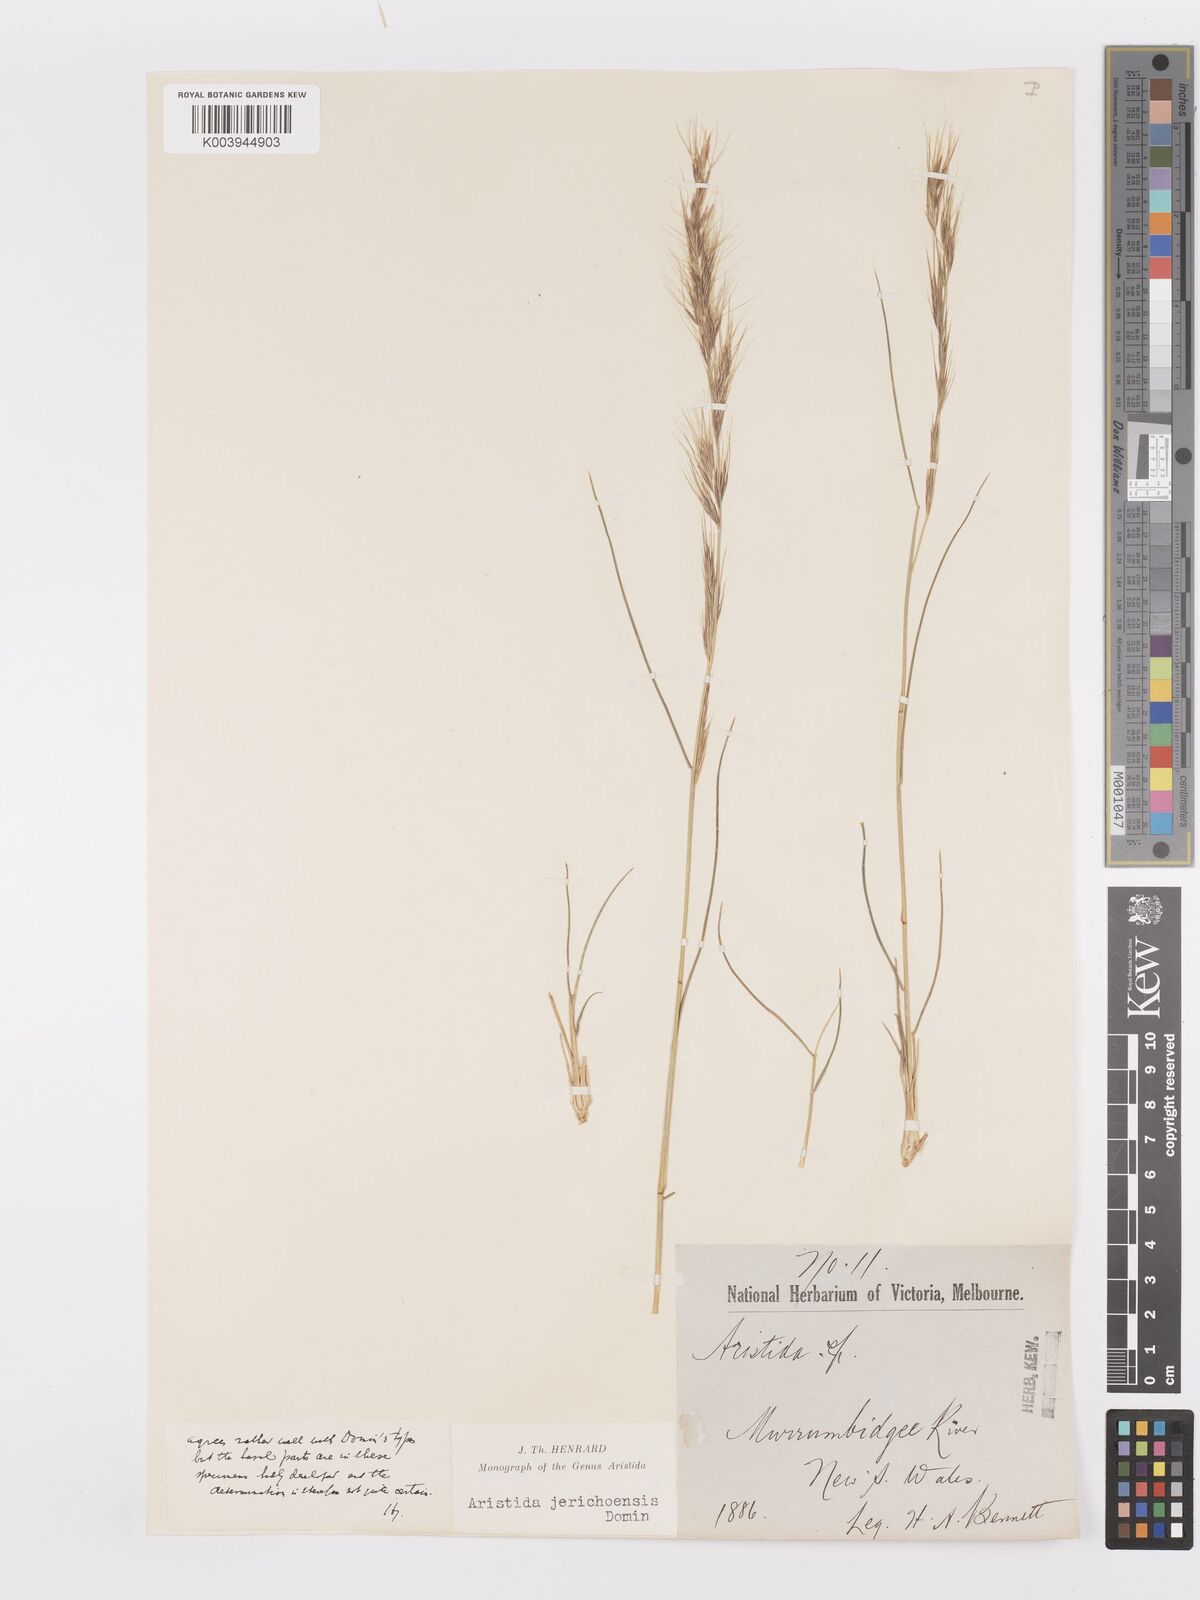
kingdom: Plantae
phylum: Tracheophyta
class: Liliopsida
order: Poales
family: Poaceae
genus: Aristida
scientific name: Aristida jerichoensis
